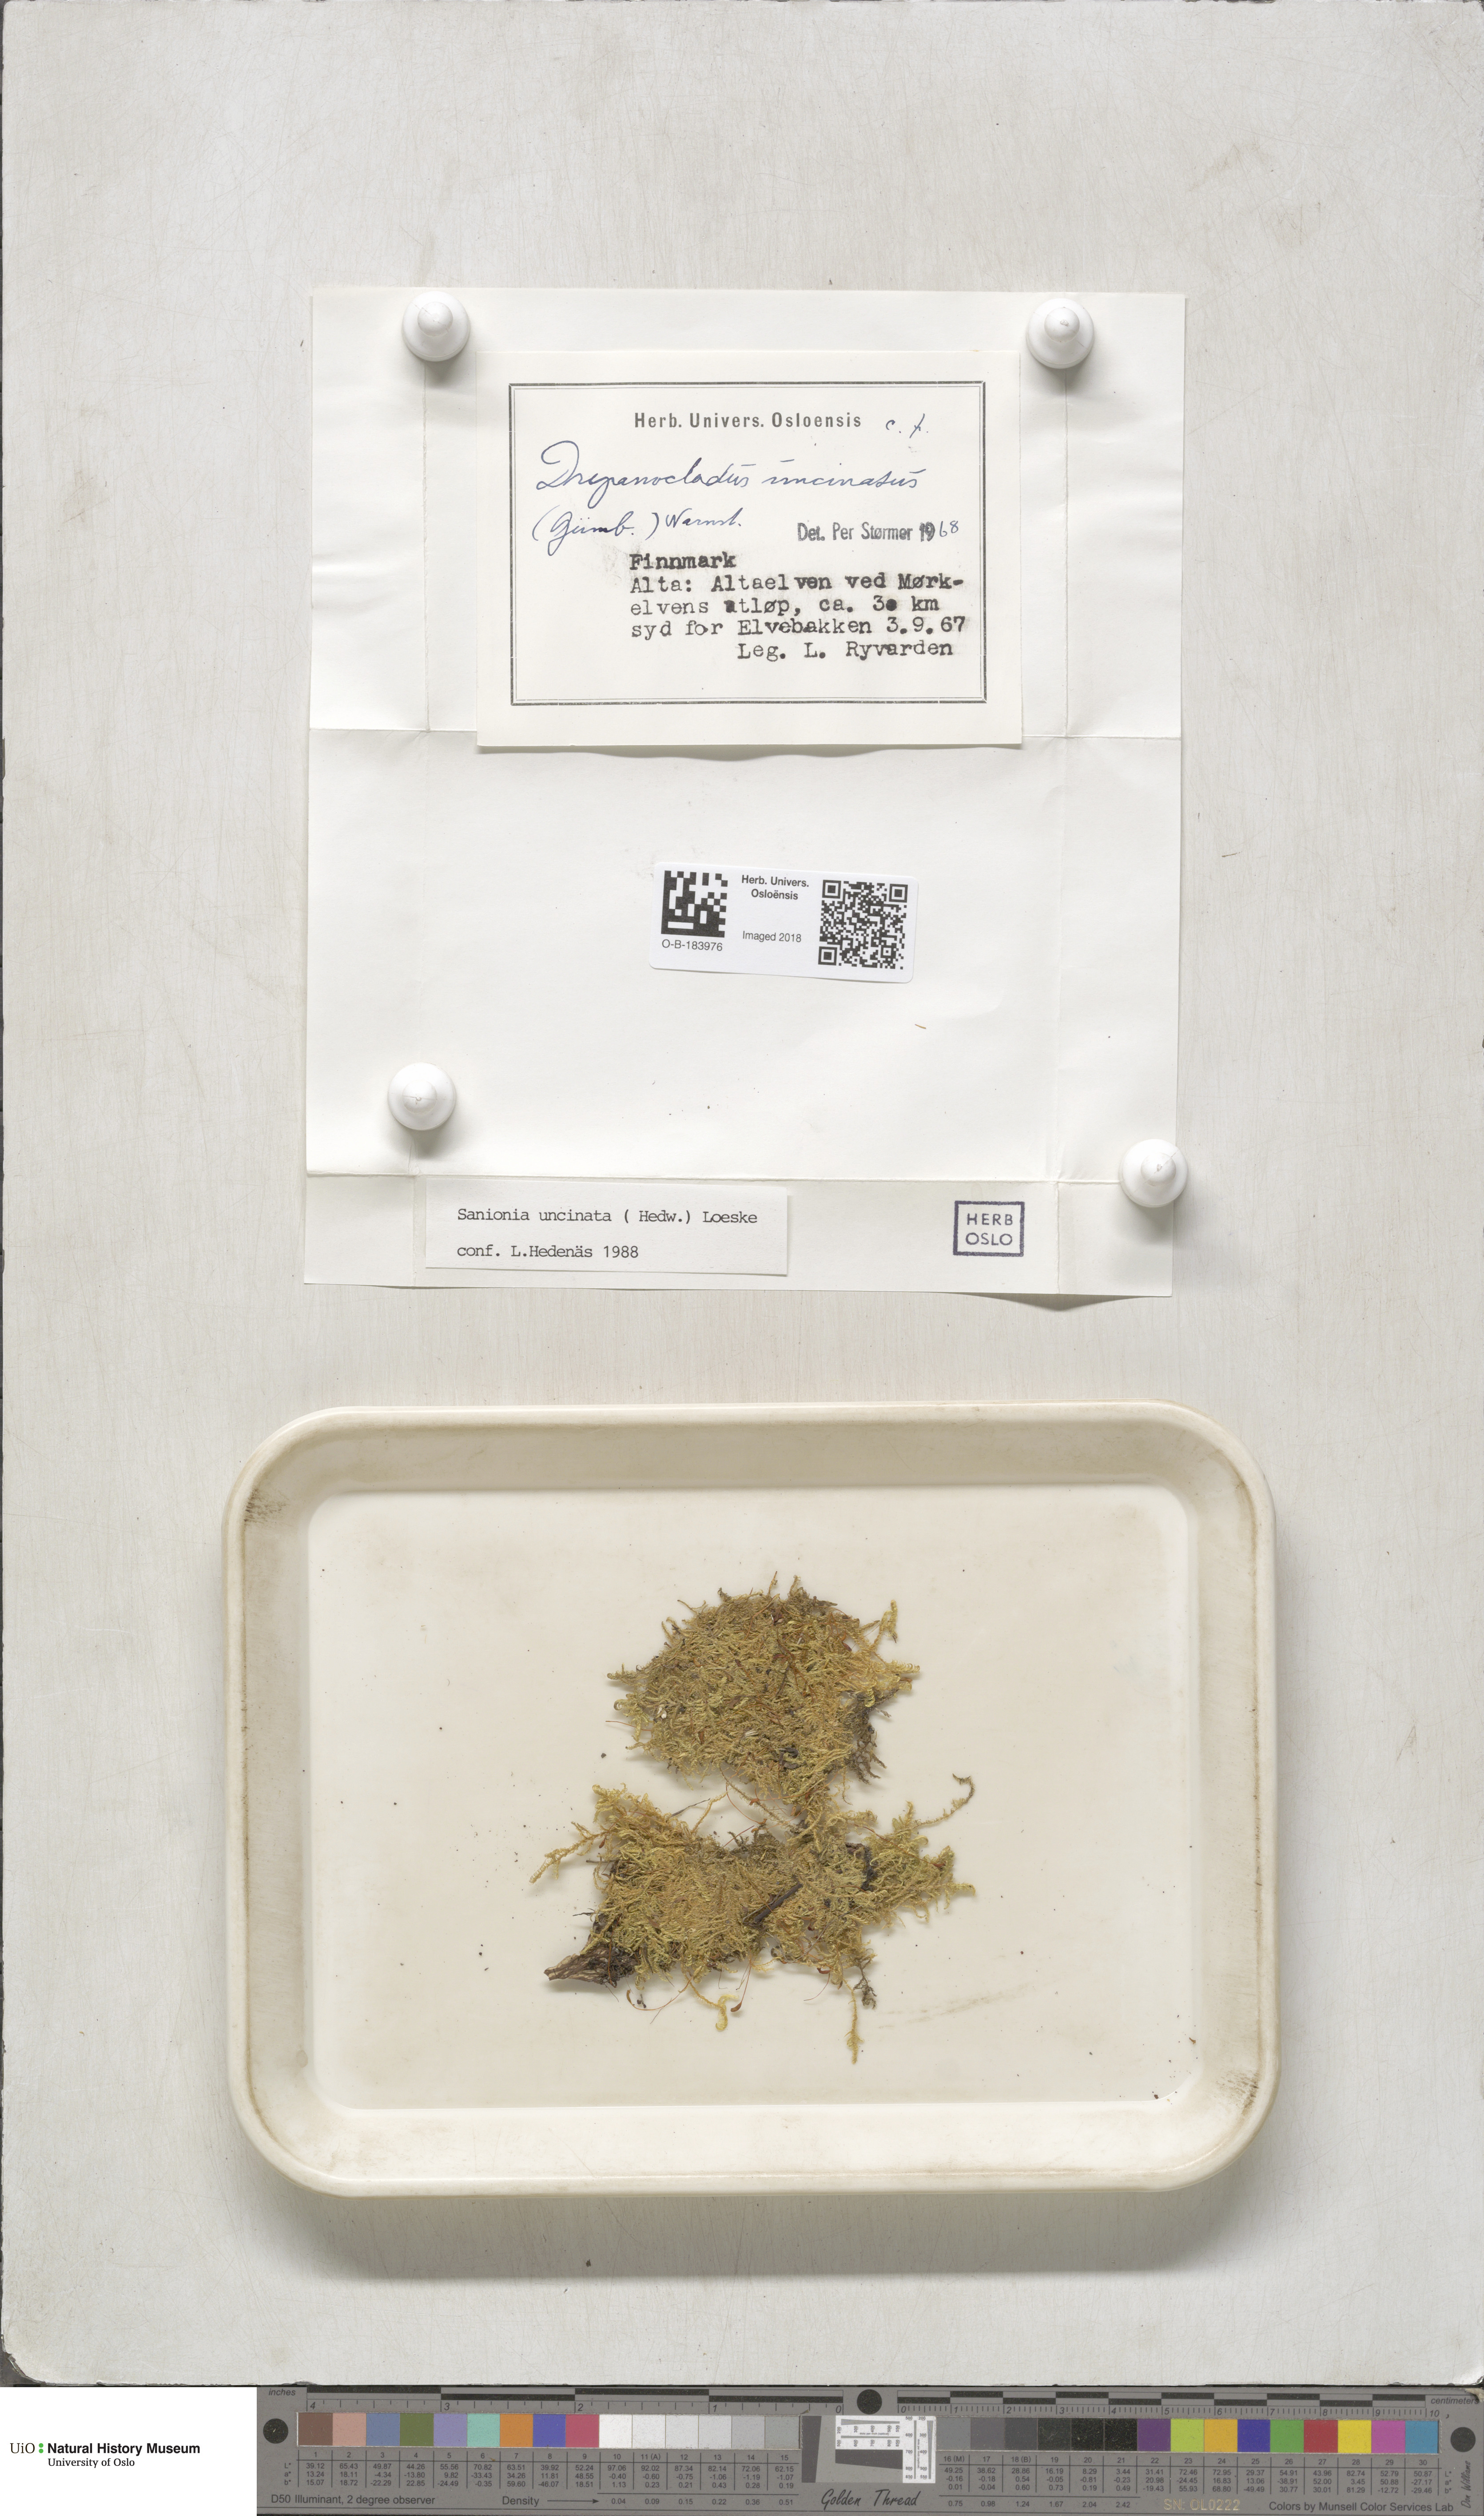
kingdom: Plantae
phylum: Bryophyta
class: Bryopsida
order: Hypnales
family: Scorpidiaceae
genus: Sanionia
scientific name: Sanionia uncinata
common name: Sickle moss
